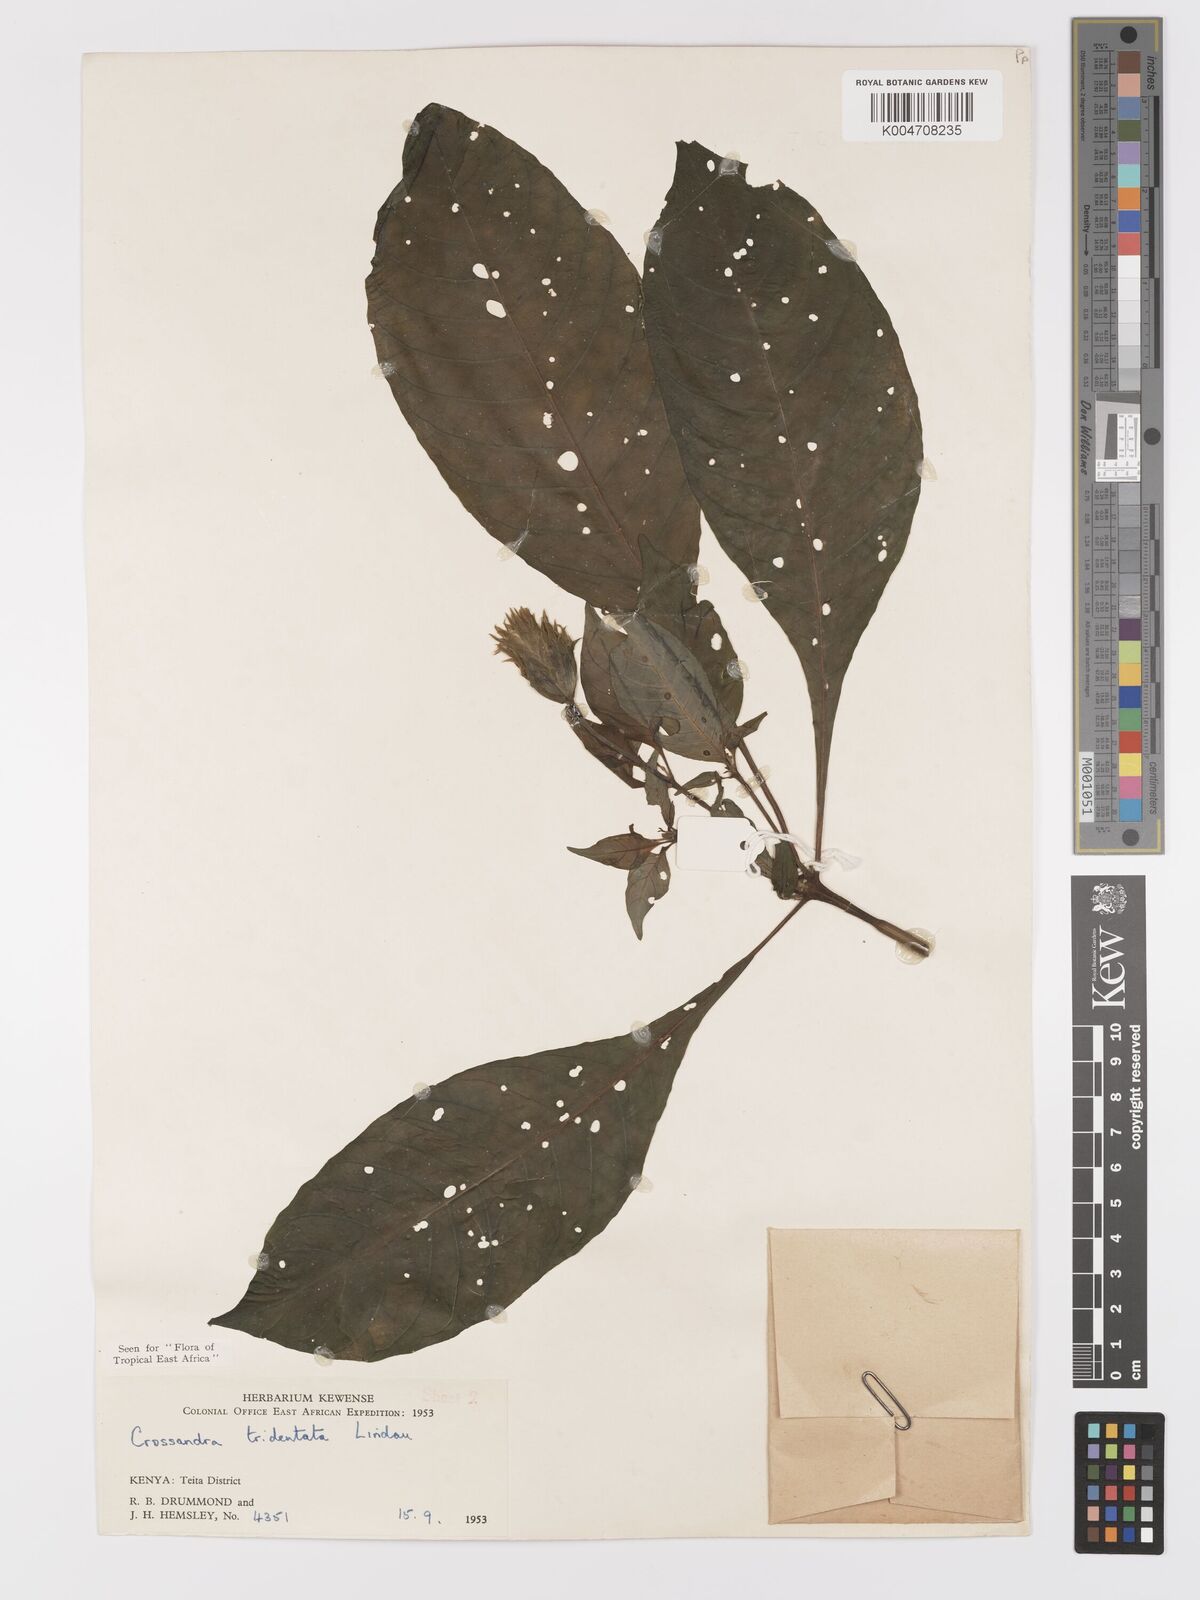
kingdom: Plantae
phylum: Tracheophyta
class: Magnoliopsida
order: Lamiales
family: Acanthaceae
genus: Crossandra
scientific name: Crossandra tridentata
